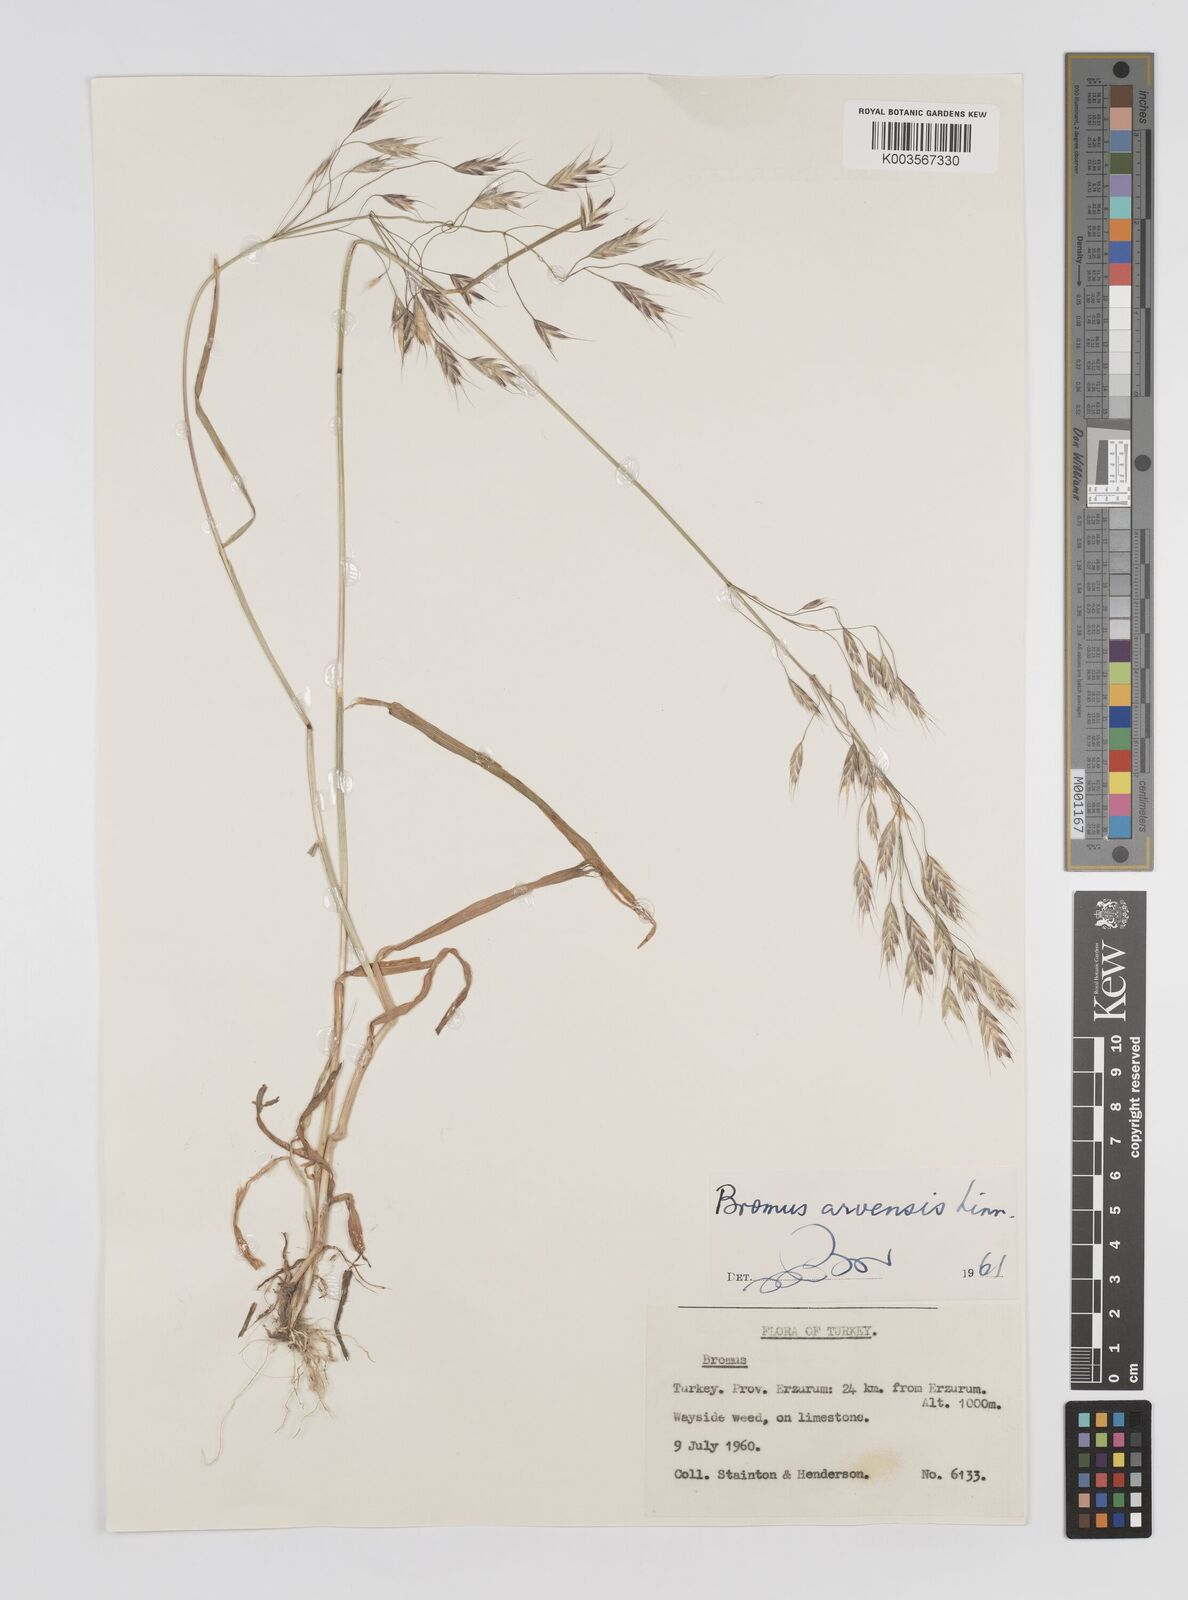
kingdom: Plantae
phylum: Tracheophyta
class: Liliopsida
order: Poales
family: Poaceae
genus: Bromus
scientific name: Bromus erectus
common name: Erect brome
